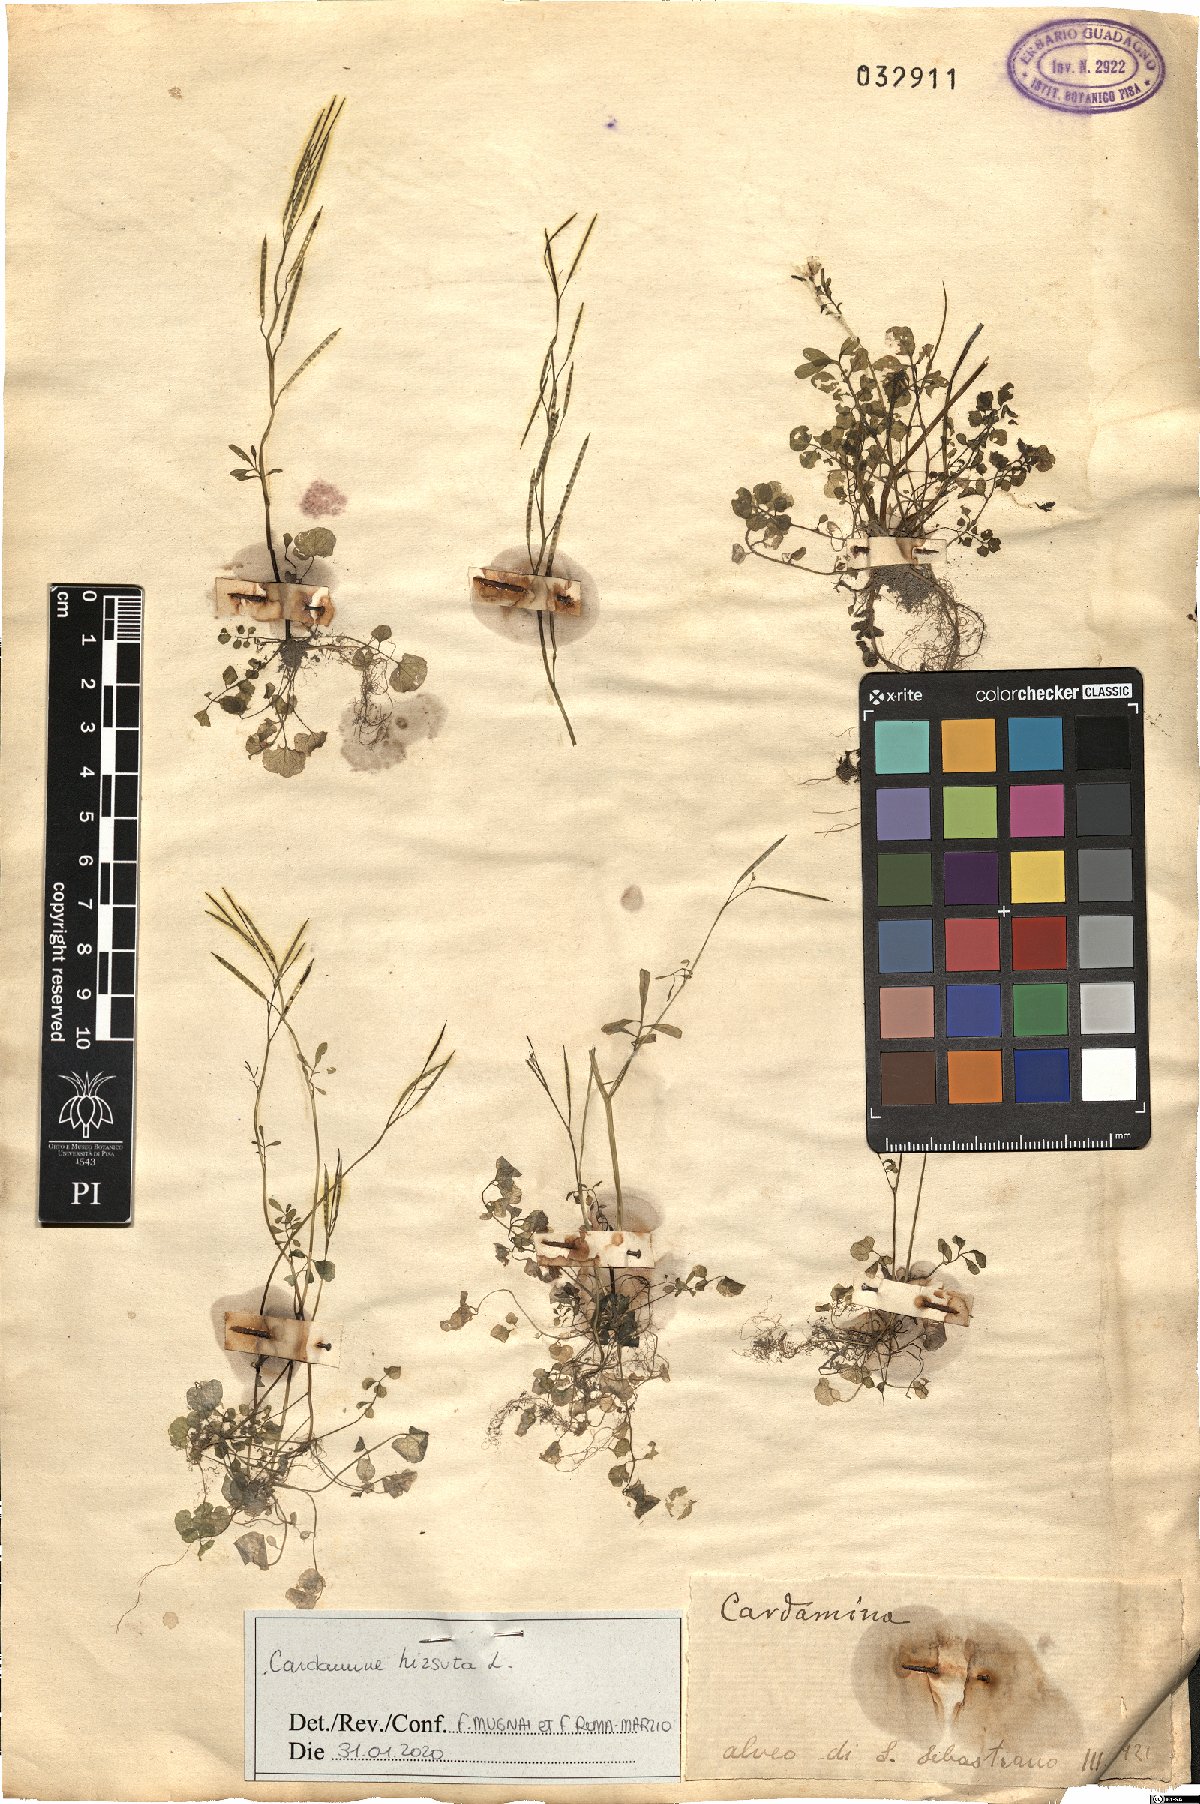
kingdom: Plantae
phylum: Tracheophyta
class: Magnoliopsida
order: Brassicales
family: Brassicaceae
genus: Cardamine
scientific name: Cardamine hirsuta
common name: Hairy bittercress
